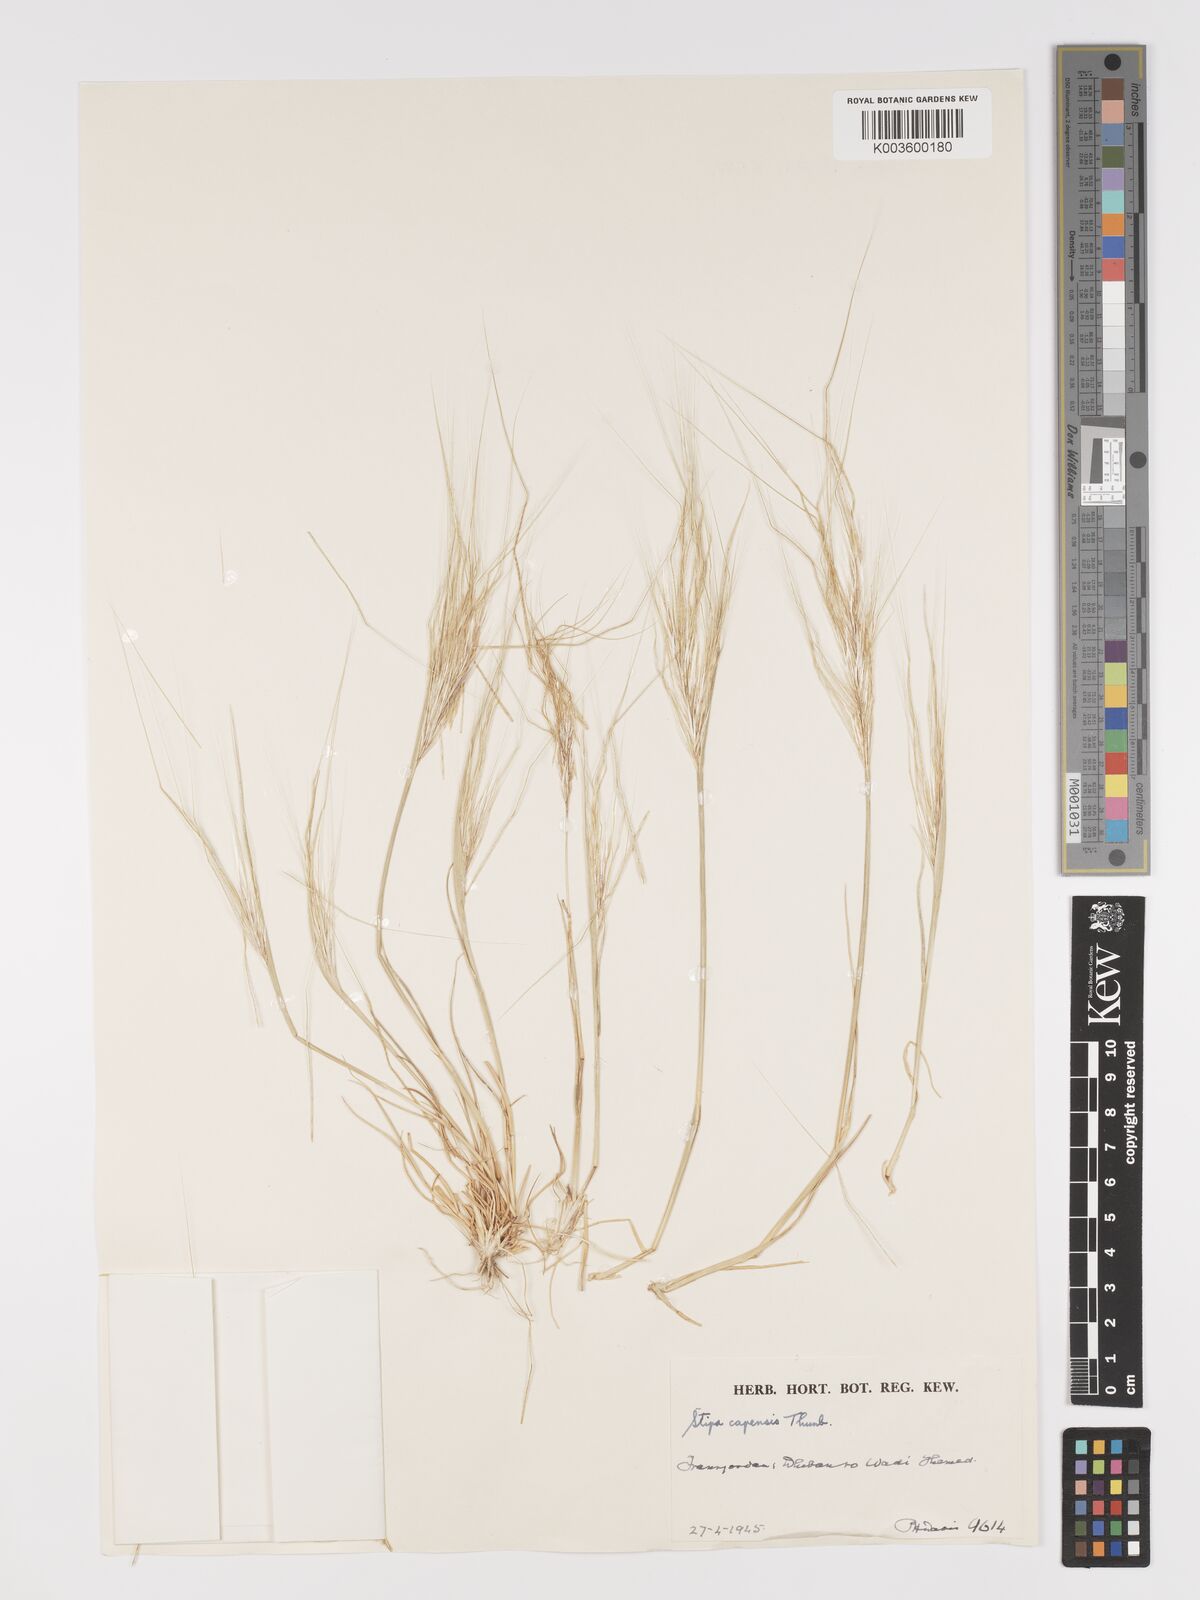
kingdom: Plantae
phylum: Tracheophyta
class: Liliopsida
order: Poales
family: Poaceae
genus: Stipellula
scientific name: Stipellula capensis
